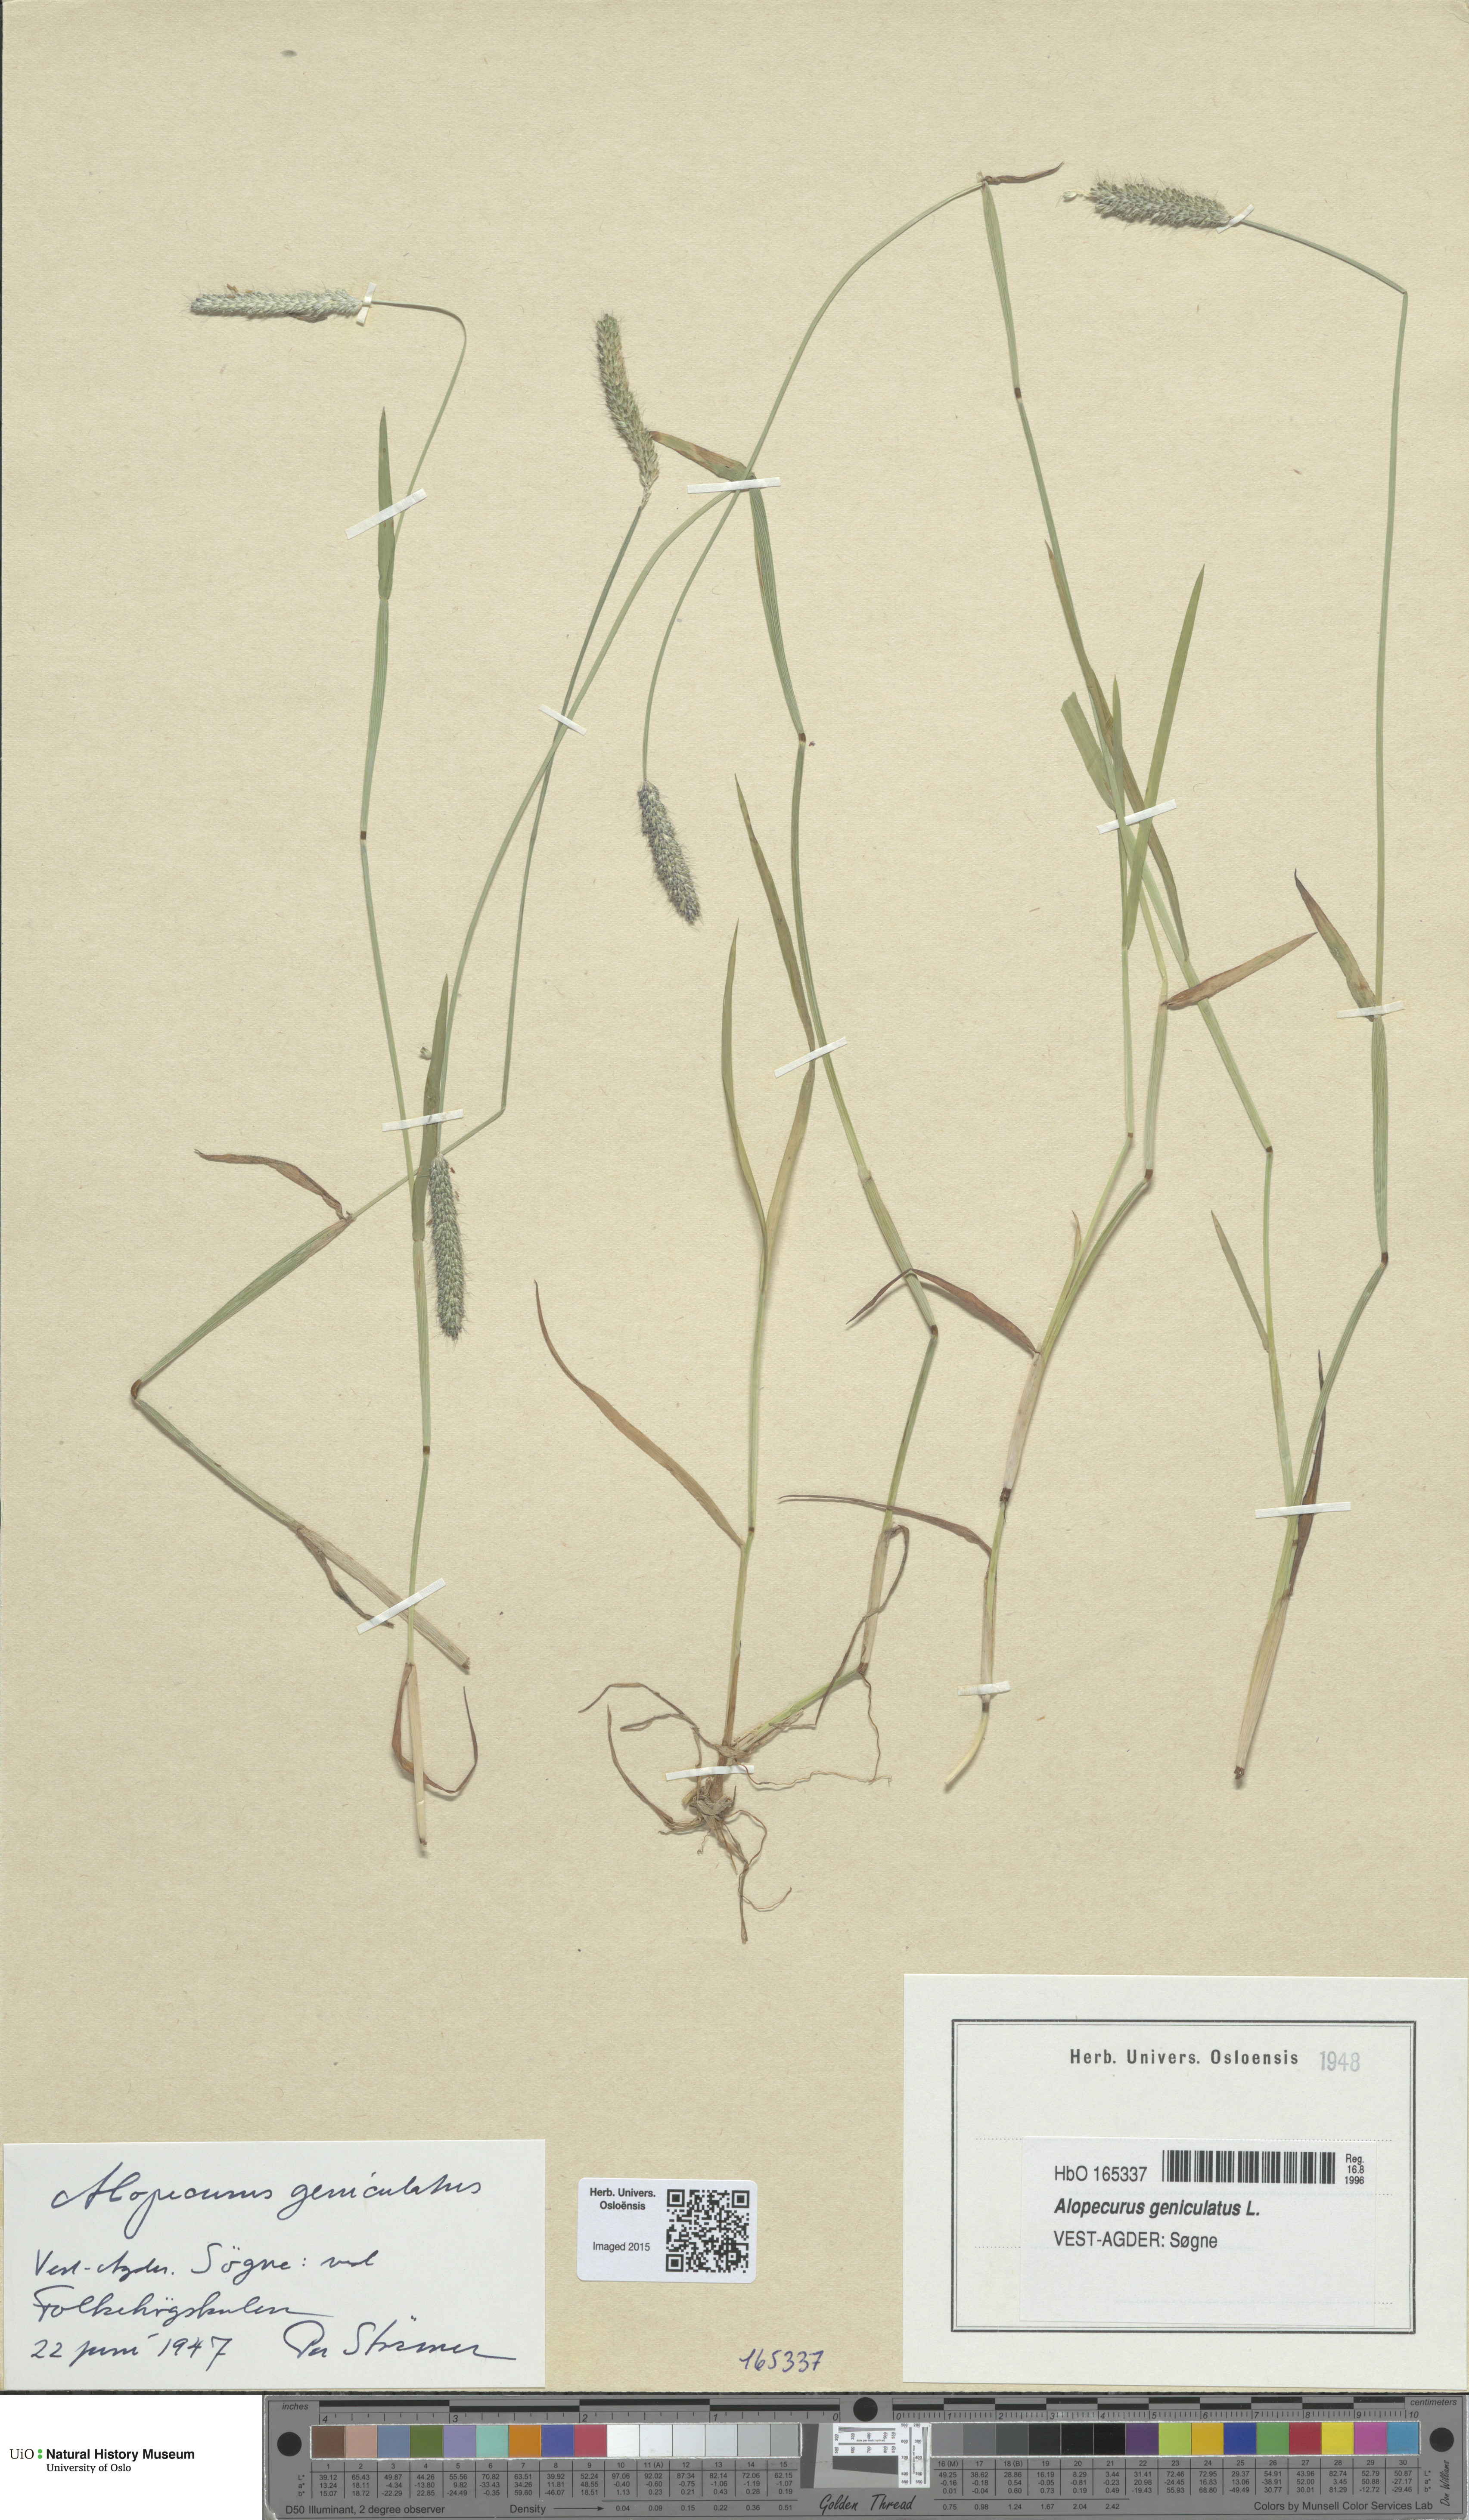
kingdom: Plantae
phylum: Tracheophyta
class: Liliopsida
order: Poales
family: Poaceae
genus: Alopecurus
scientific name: Alopecurus geniculatus
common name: Water foxtail
